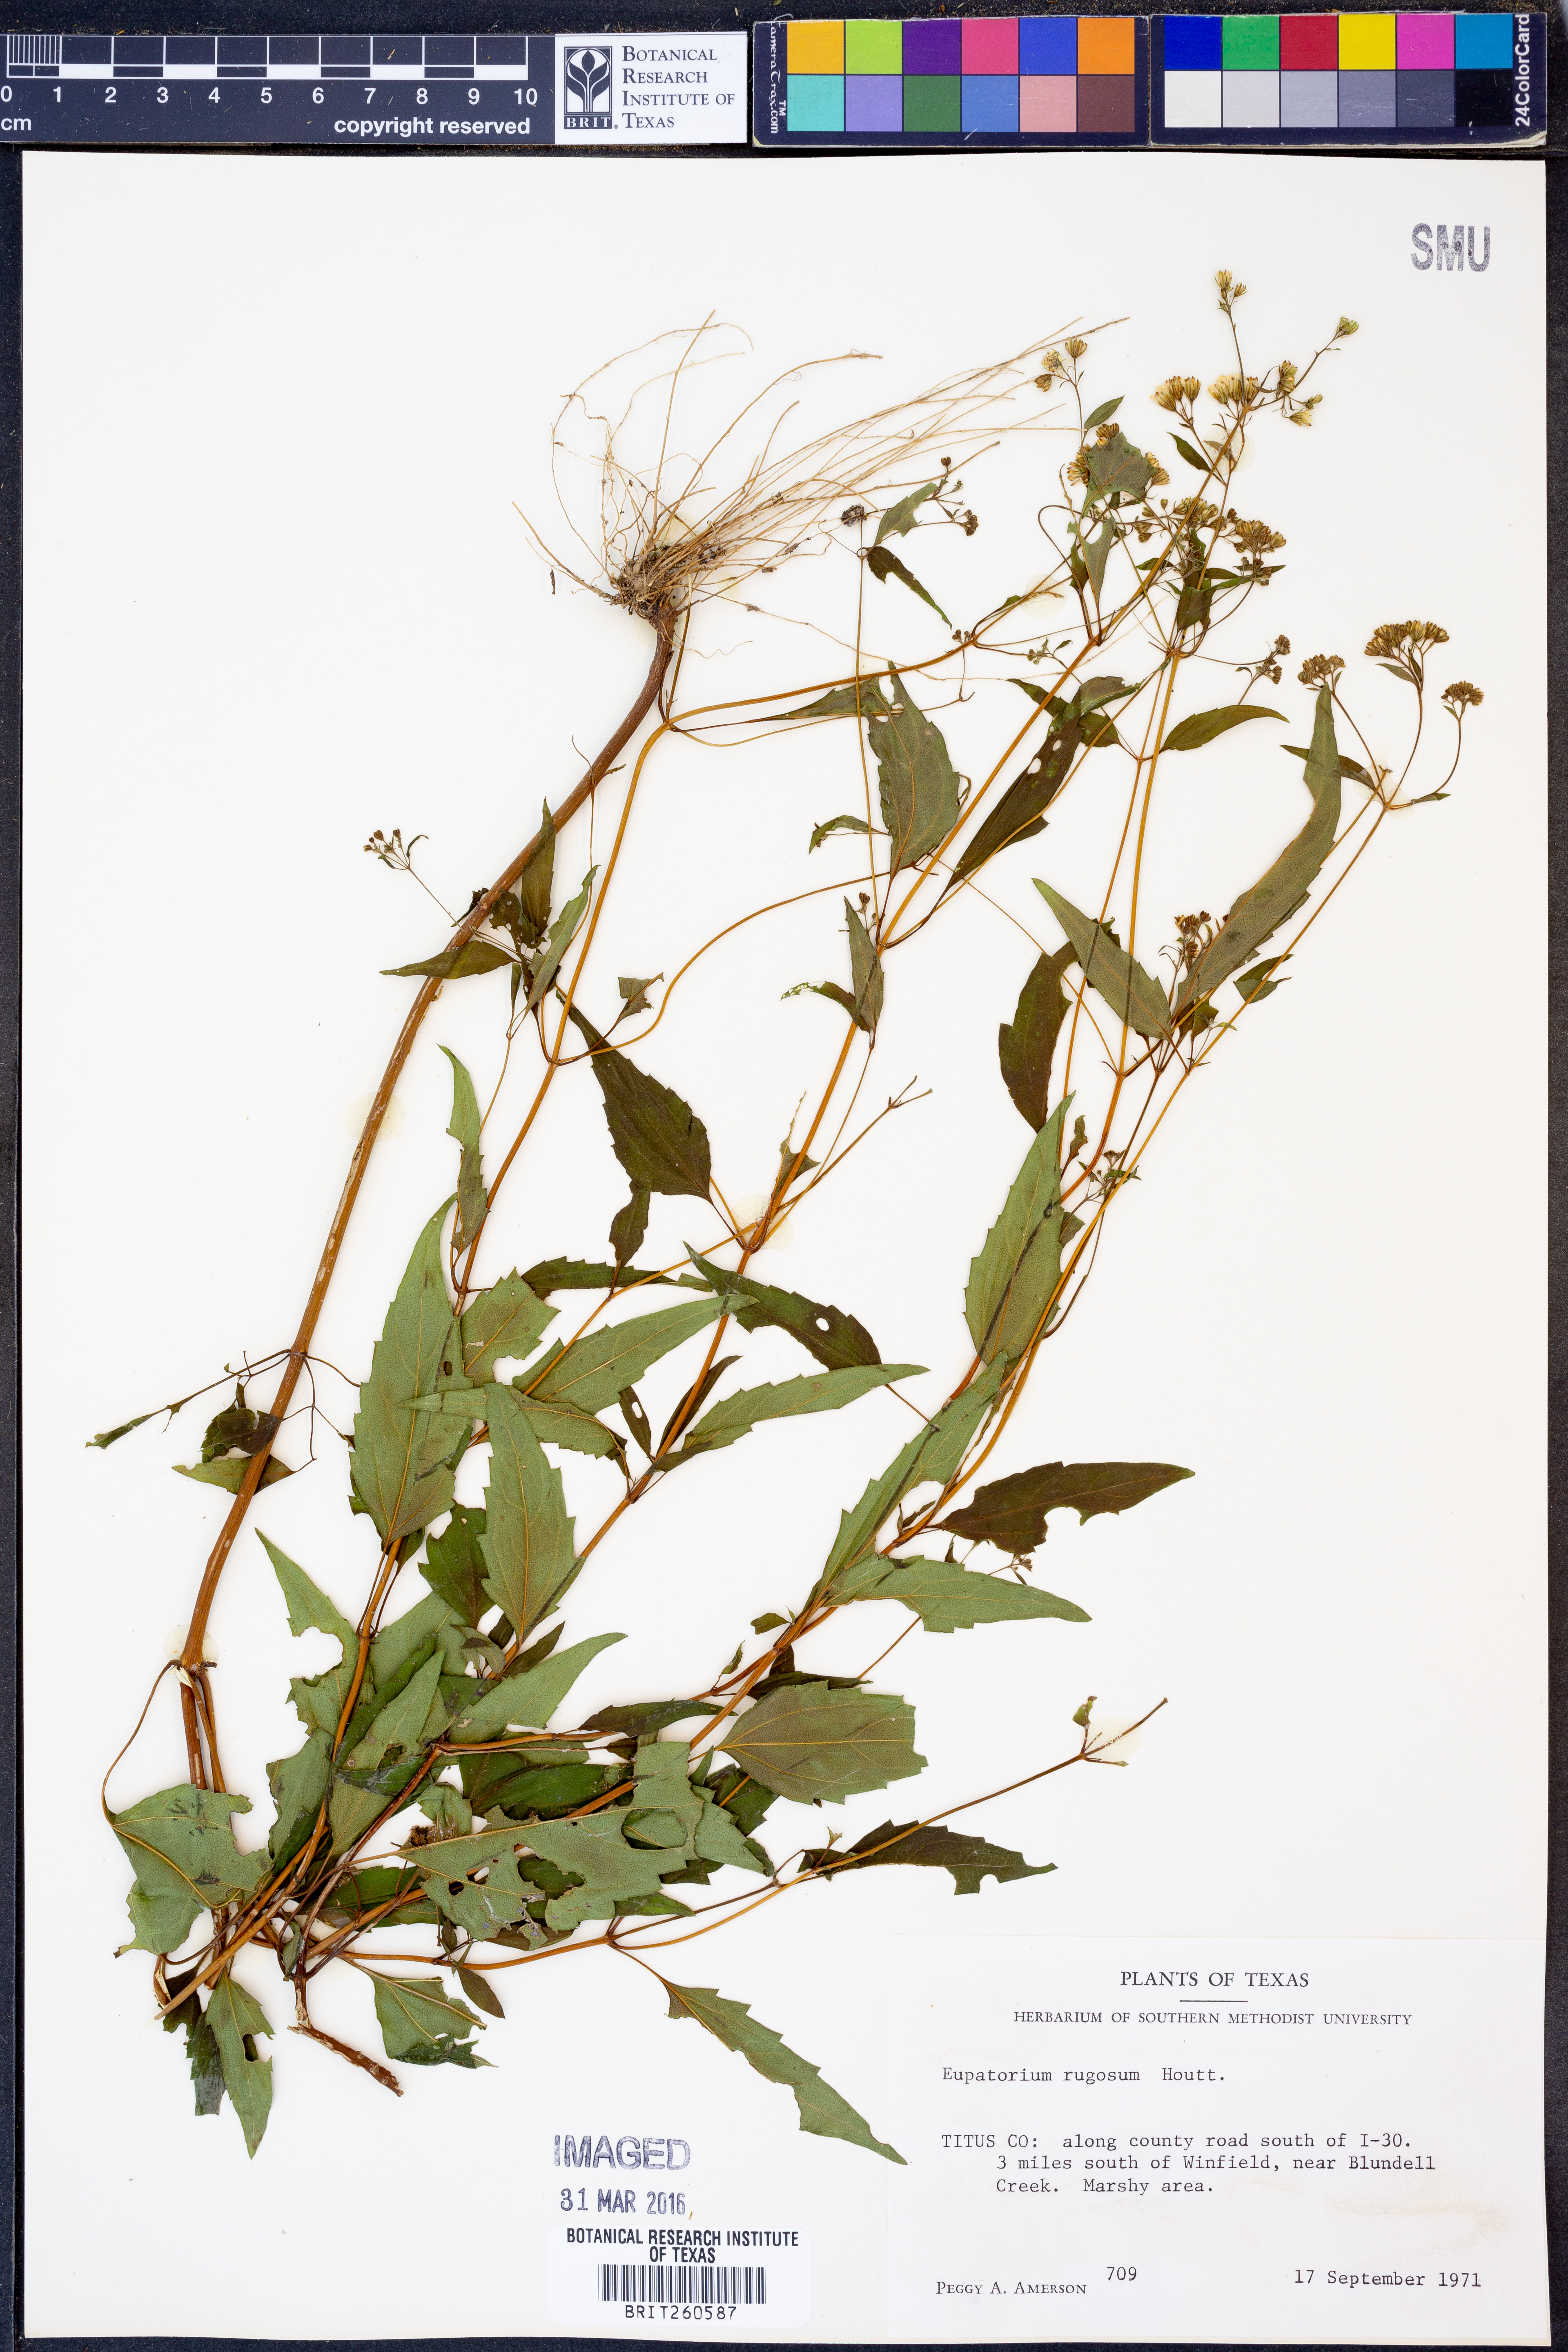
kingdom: Plantae
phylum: Tracheophyta
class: Magnoliopsida
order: Asterales
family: Asteraceae
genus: Cronquistianthus
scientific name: Cronquistianthus bulliferus
